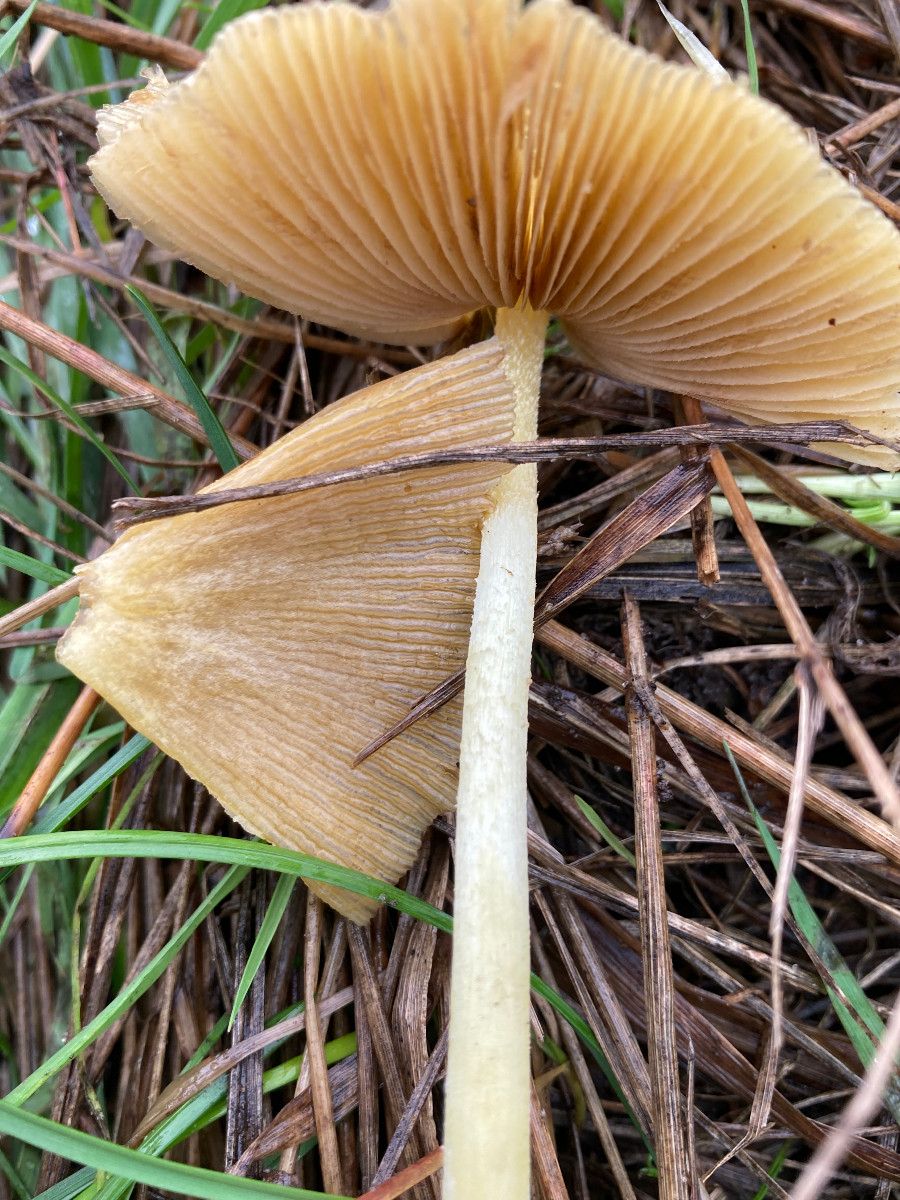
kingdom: Fungi
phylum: Basidiomycota
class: Agaricomycetes
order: Agaricales
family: Bolbitiaceae
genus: Bolbitius
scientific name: Bolbitius titubans
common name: almindelig gulhat
